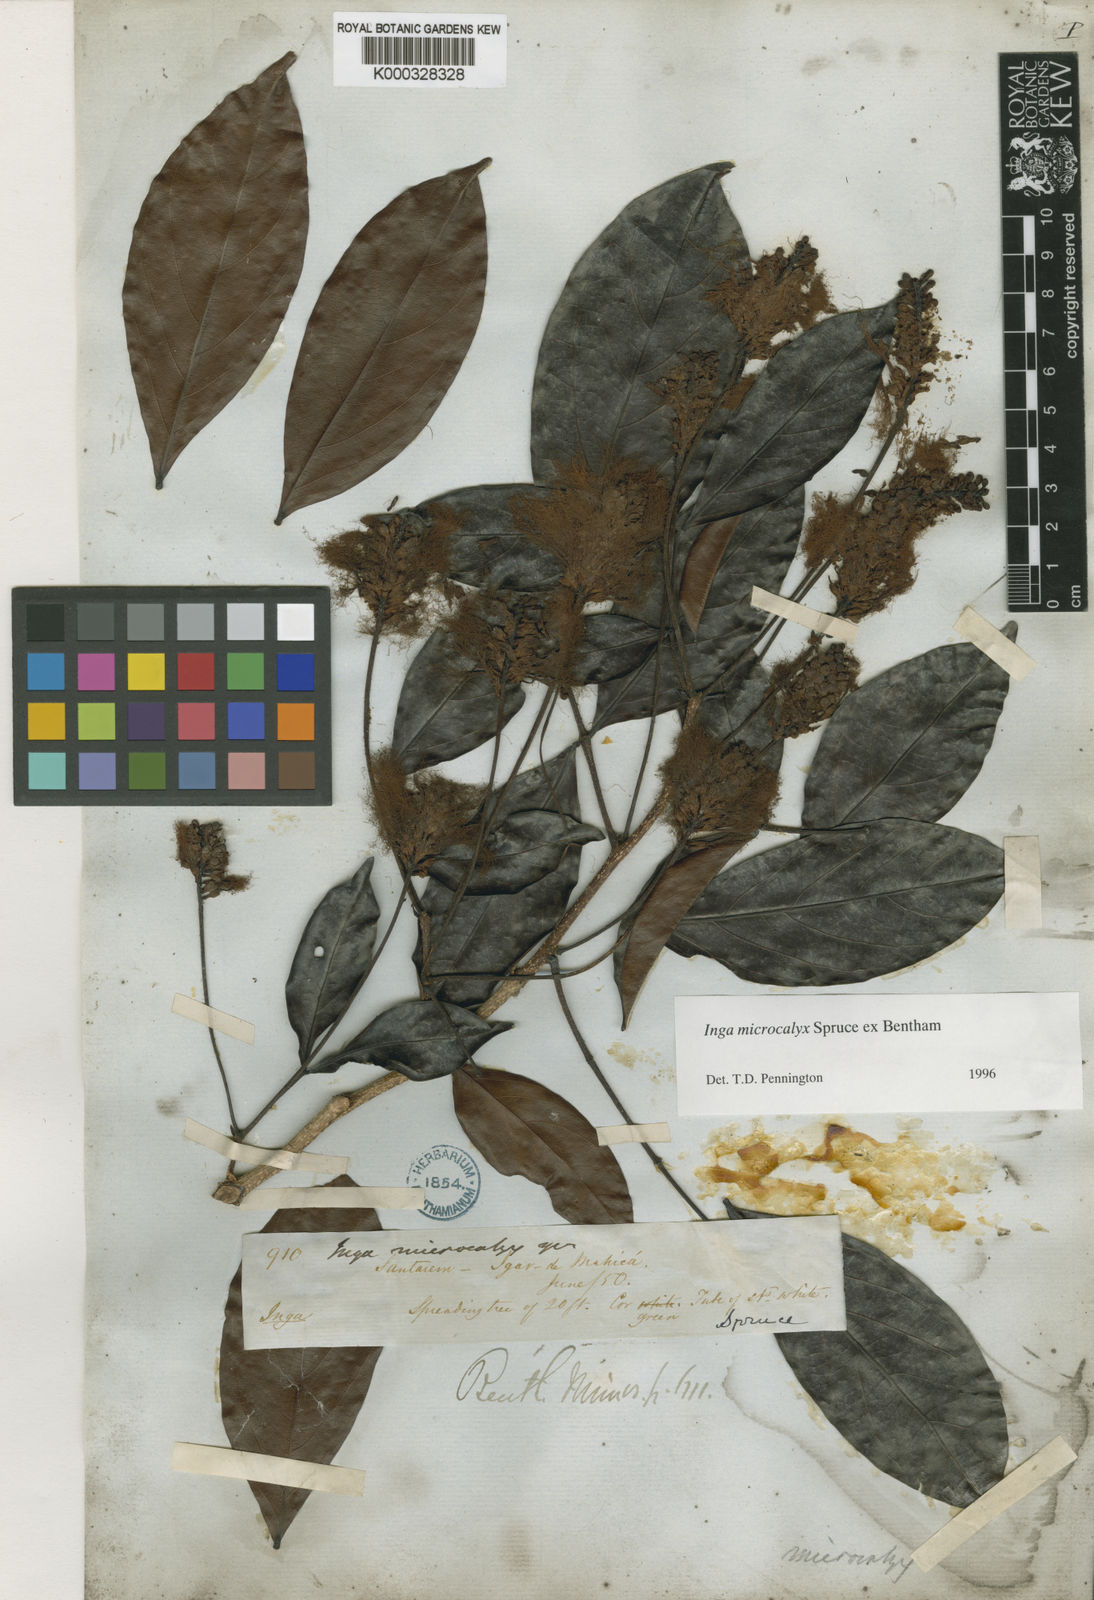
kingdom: Plantae
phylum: Tracheophyta
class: Magnoliopsida
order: Fabales
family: Fabaceae
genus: Inga
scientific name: Inga microcalyx
